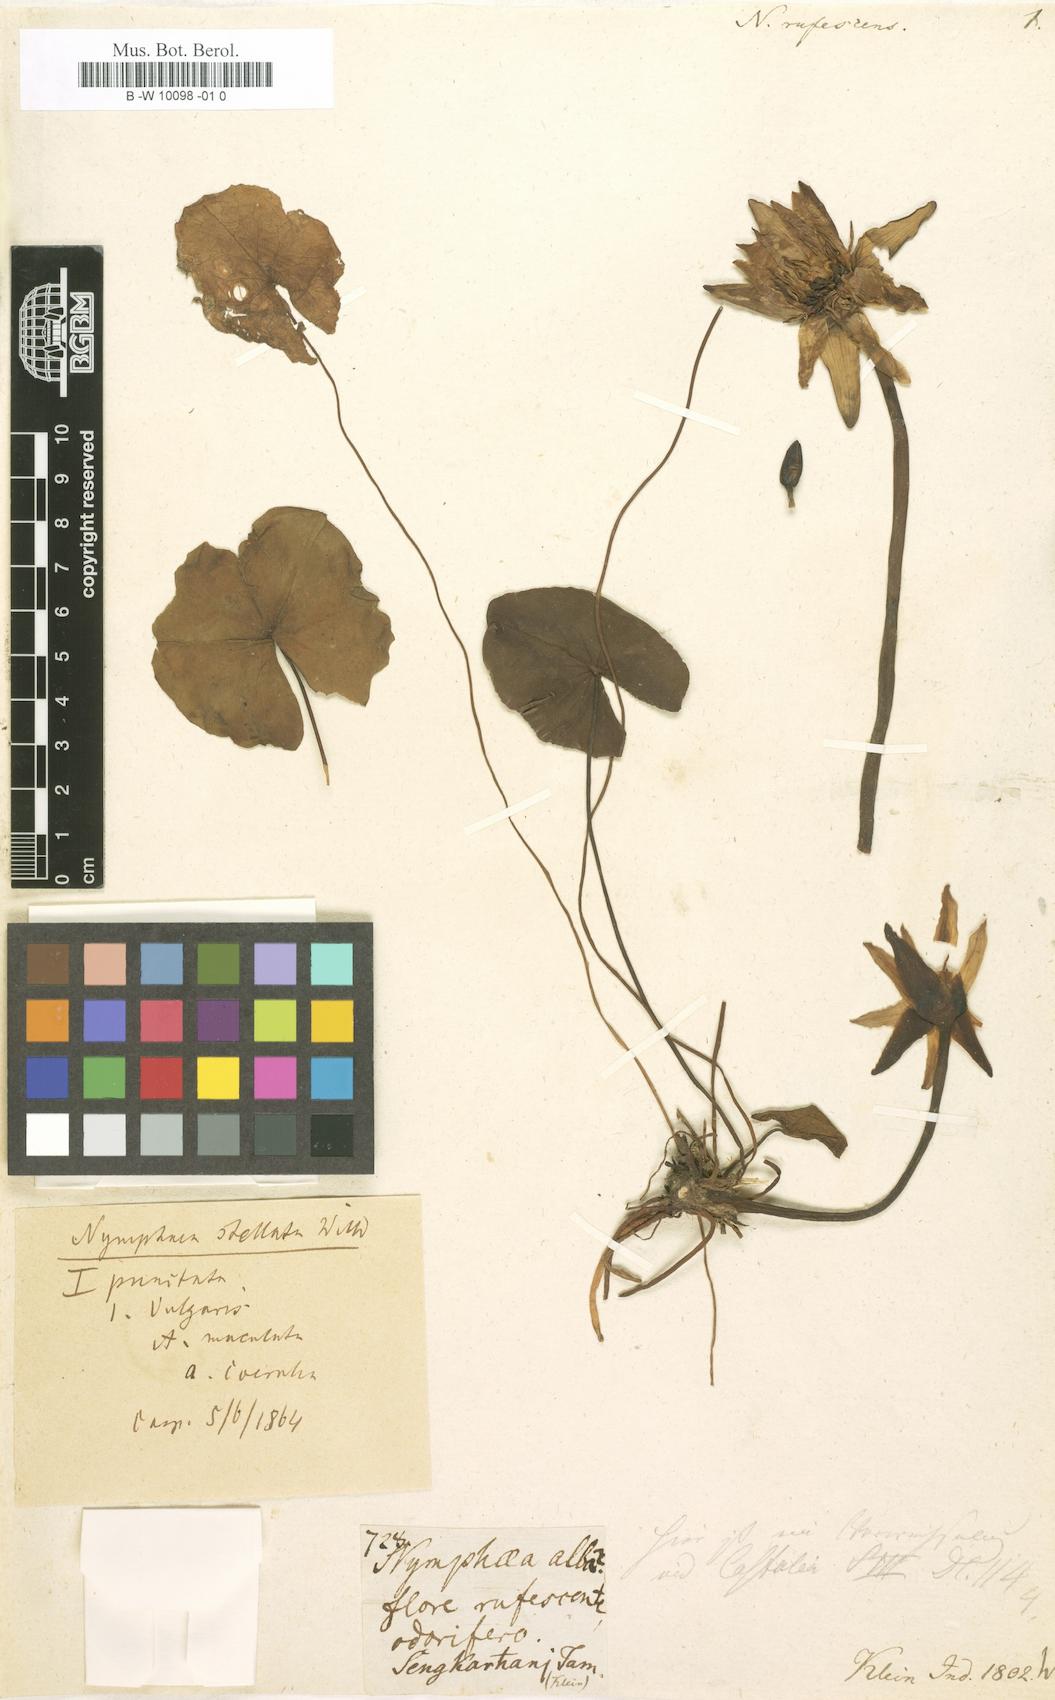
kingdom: Plantae
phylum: Tracheophyta
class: Magnoliopsida
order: Nymphaeales
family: Nymphaeaceae
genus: Nymphaea
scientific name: Nymphaea
